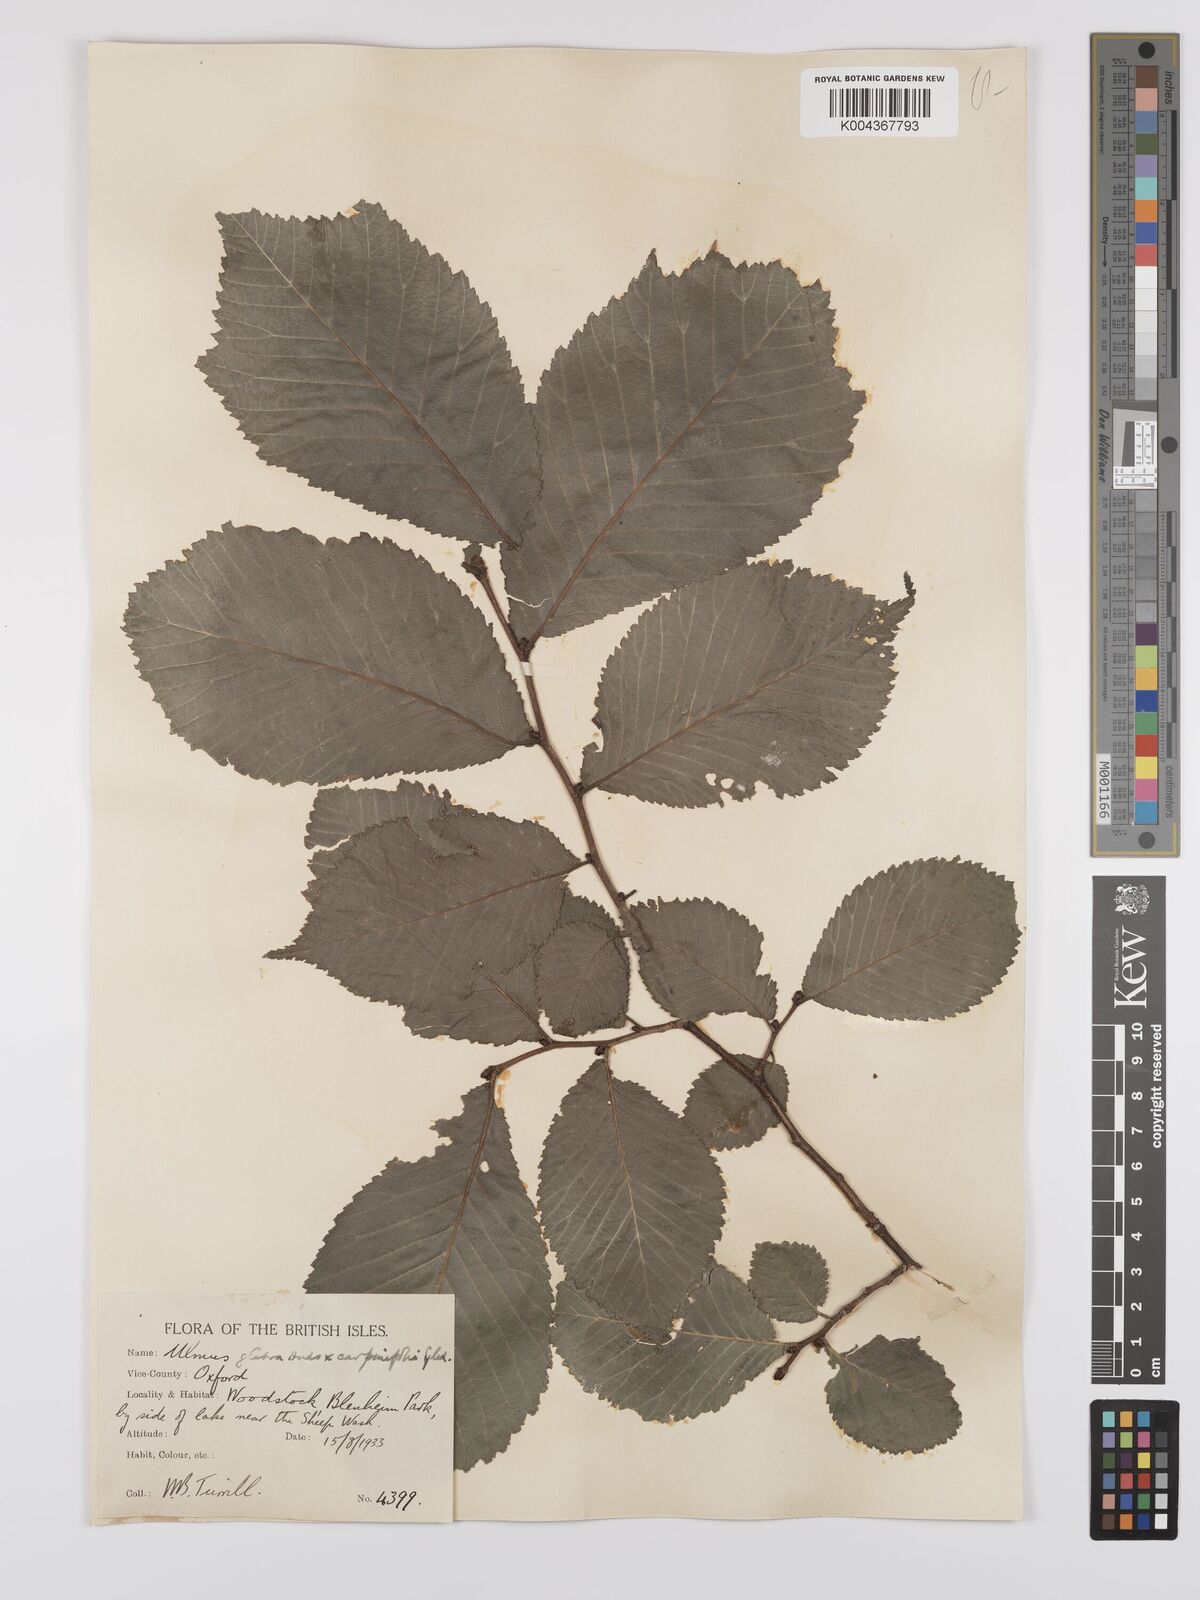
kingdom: Plantae
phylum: Tracheophyta
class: Magnoliopsida
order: Rosales
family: Ulmaceae
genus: Ulmus
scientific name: Ulmus
